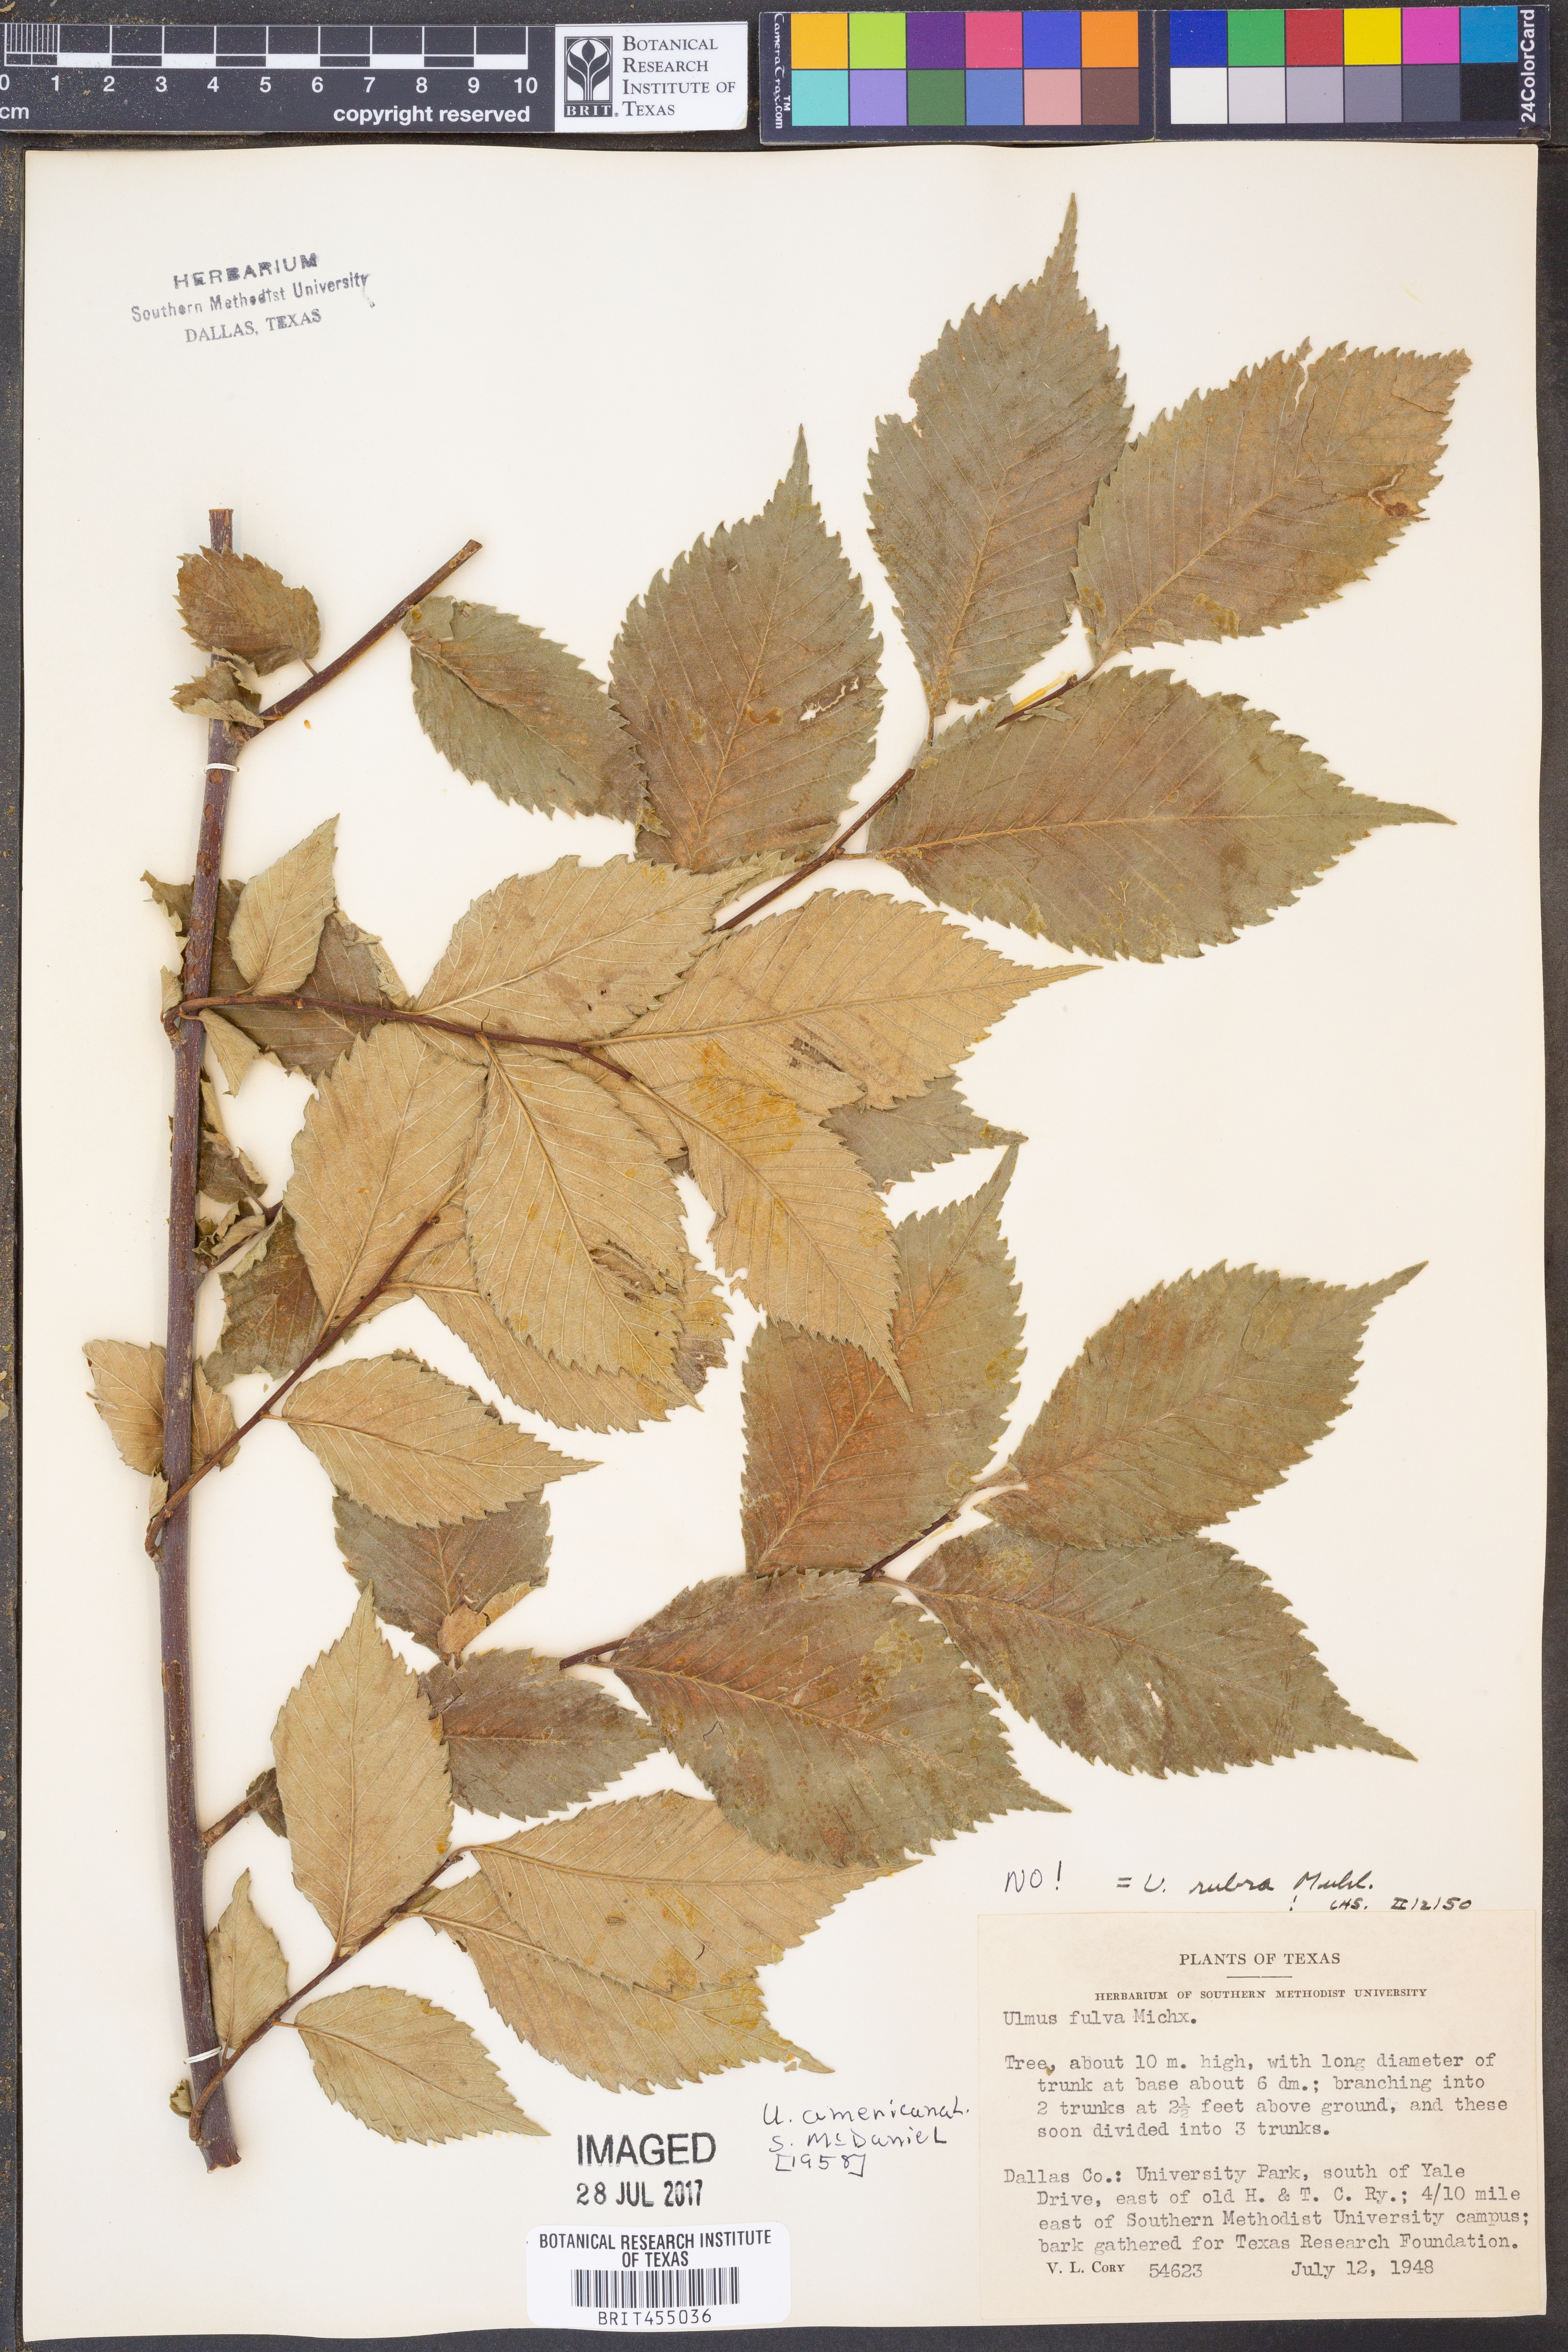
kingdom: Plantae
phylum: Tracheophyta
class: Magnoliopsida
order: Rosales
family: Ulmaceae
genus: Ulmus
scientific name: Ulmus americana
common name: American elm
